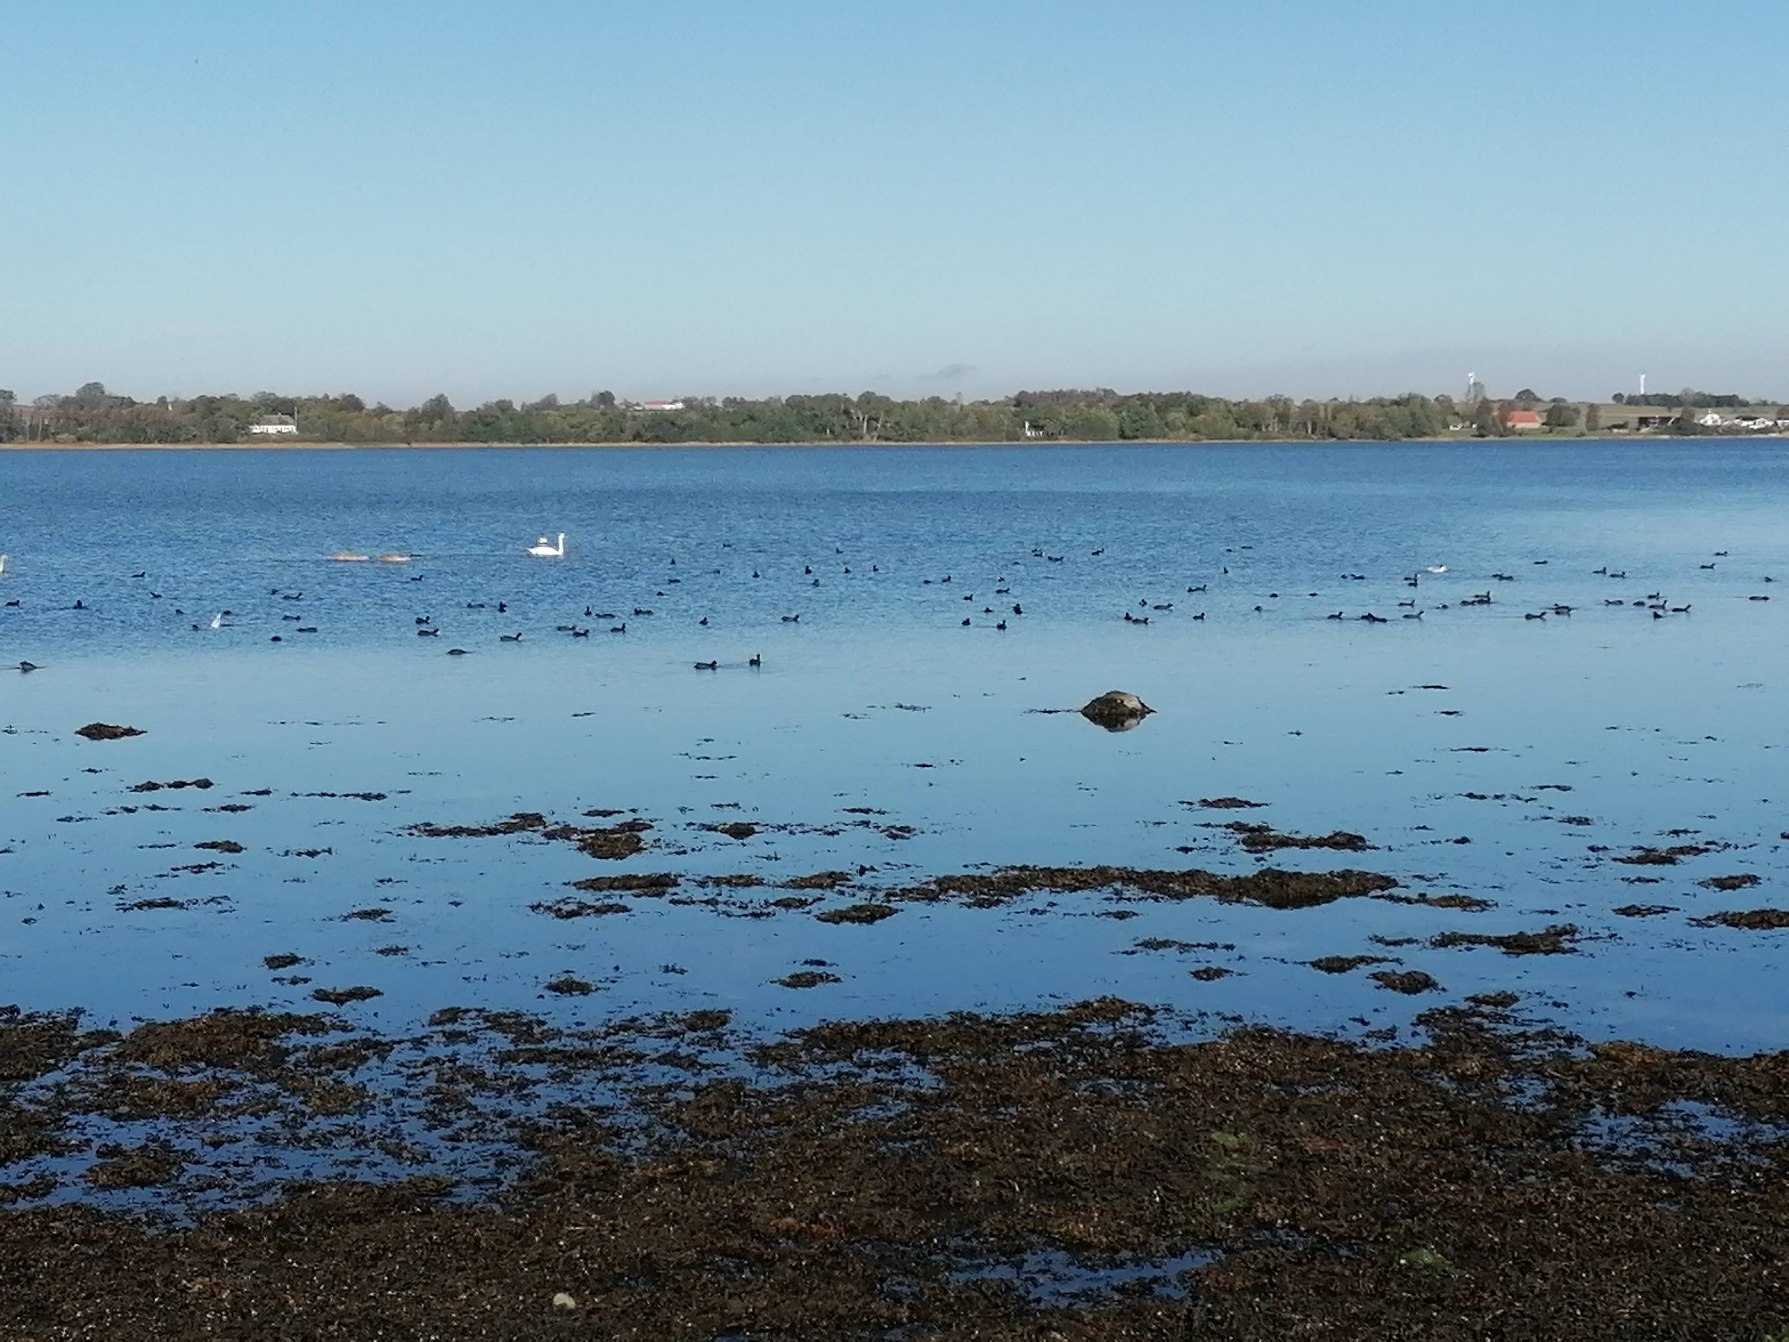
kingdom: Animalia
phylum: Chordata
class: Aves
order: Gruiformes
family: Rallidae
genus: Fulica
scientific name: Fulica atra
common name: Blishøne
